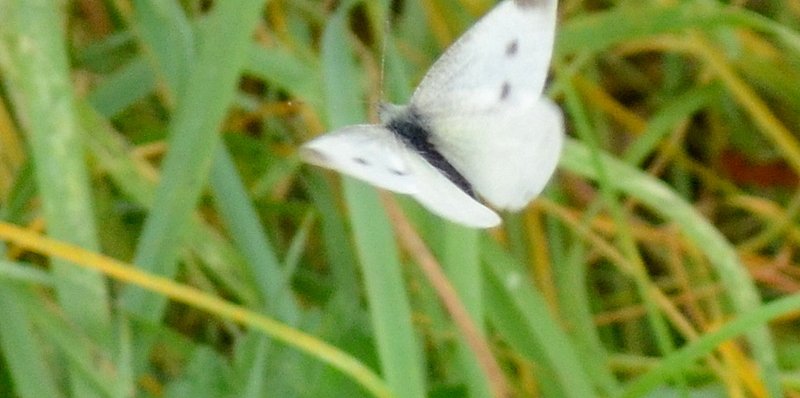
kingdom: Animalia
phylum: Arthropoda
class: Insecta
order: Lepidoptera
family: Pieridae
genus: Pieris
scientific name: Pieris rapae
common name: Cabbage White
